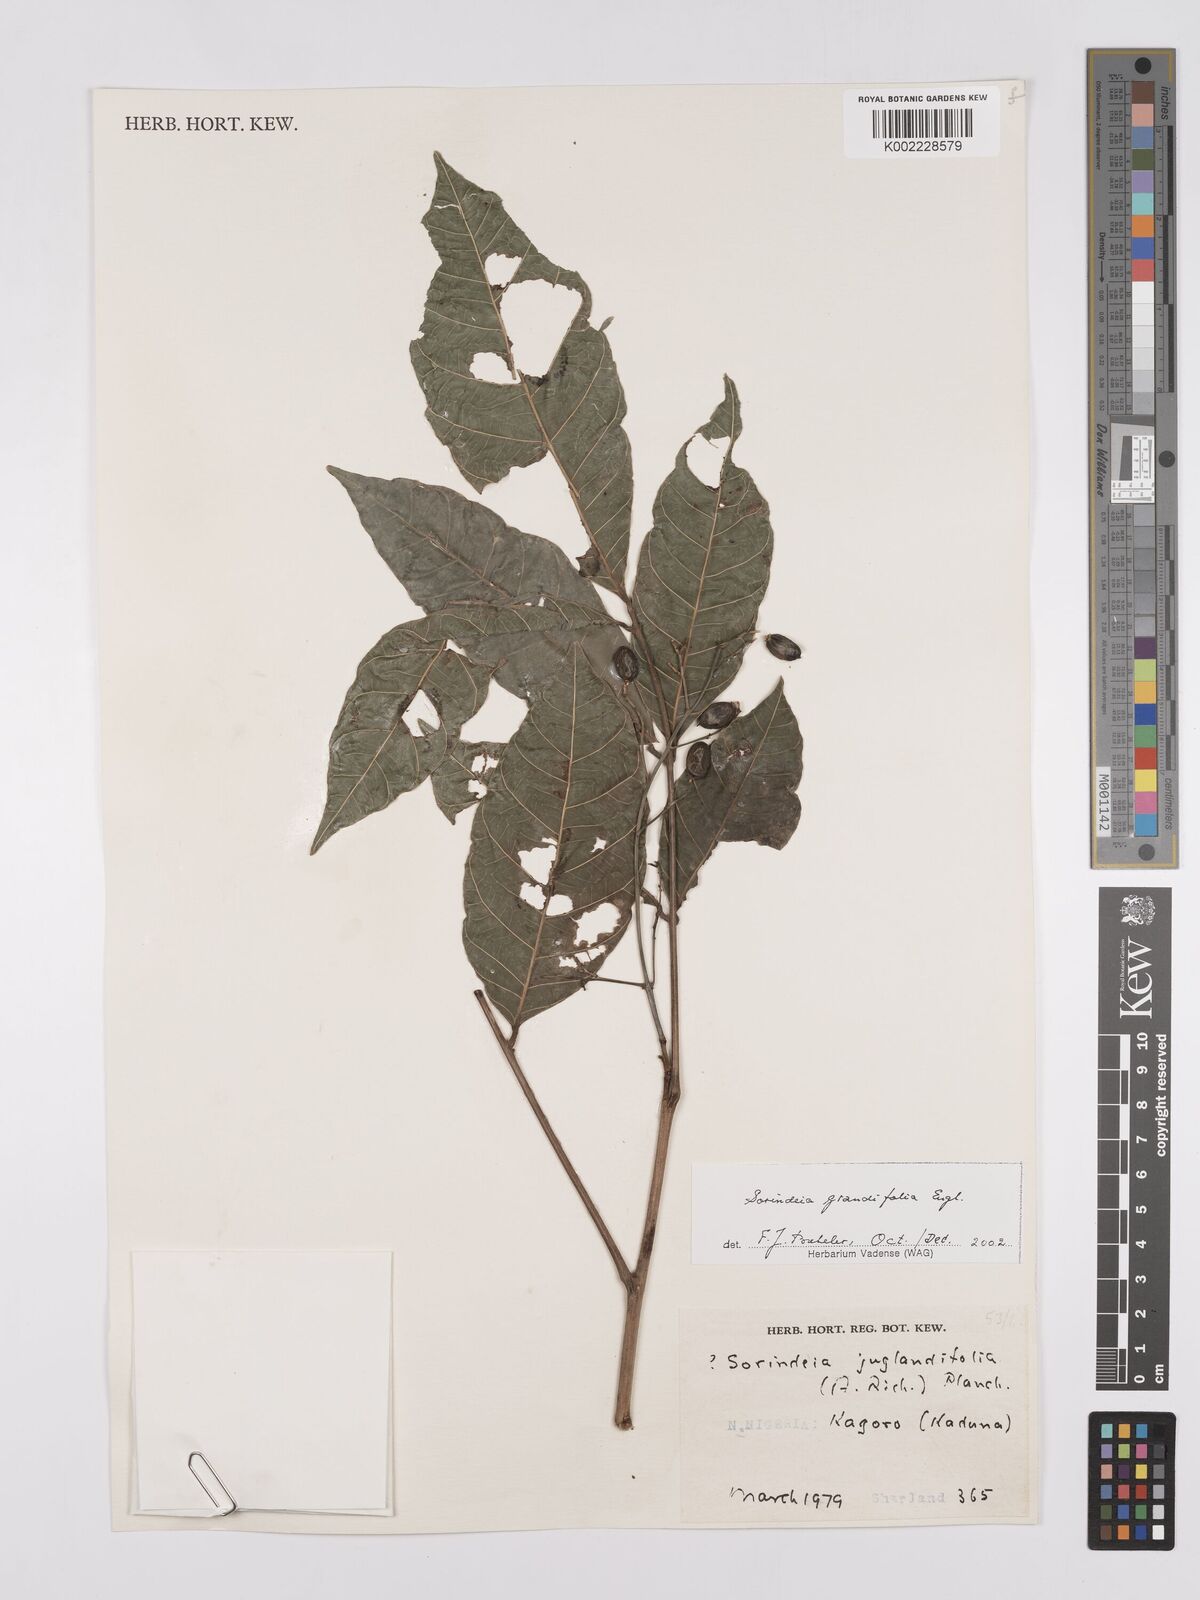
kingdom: Plantae
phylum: Tracheophyta
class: Magnoliopsida
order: Sapindales
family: Anacardiaceae
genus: Sorindeia
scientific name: Sorindeia grandifolia
